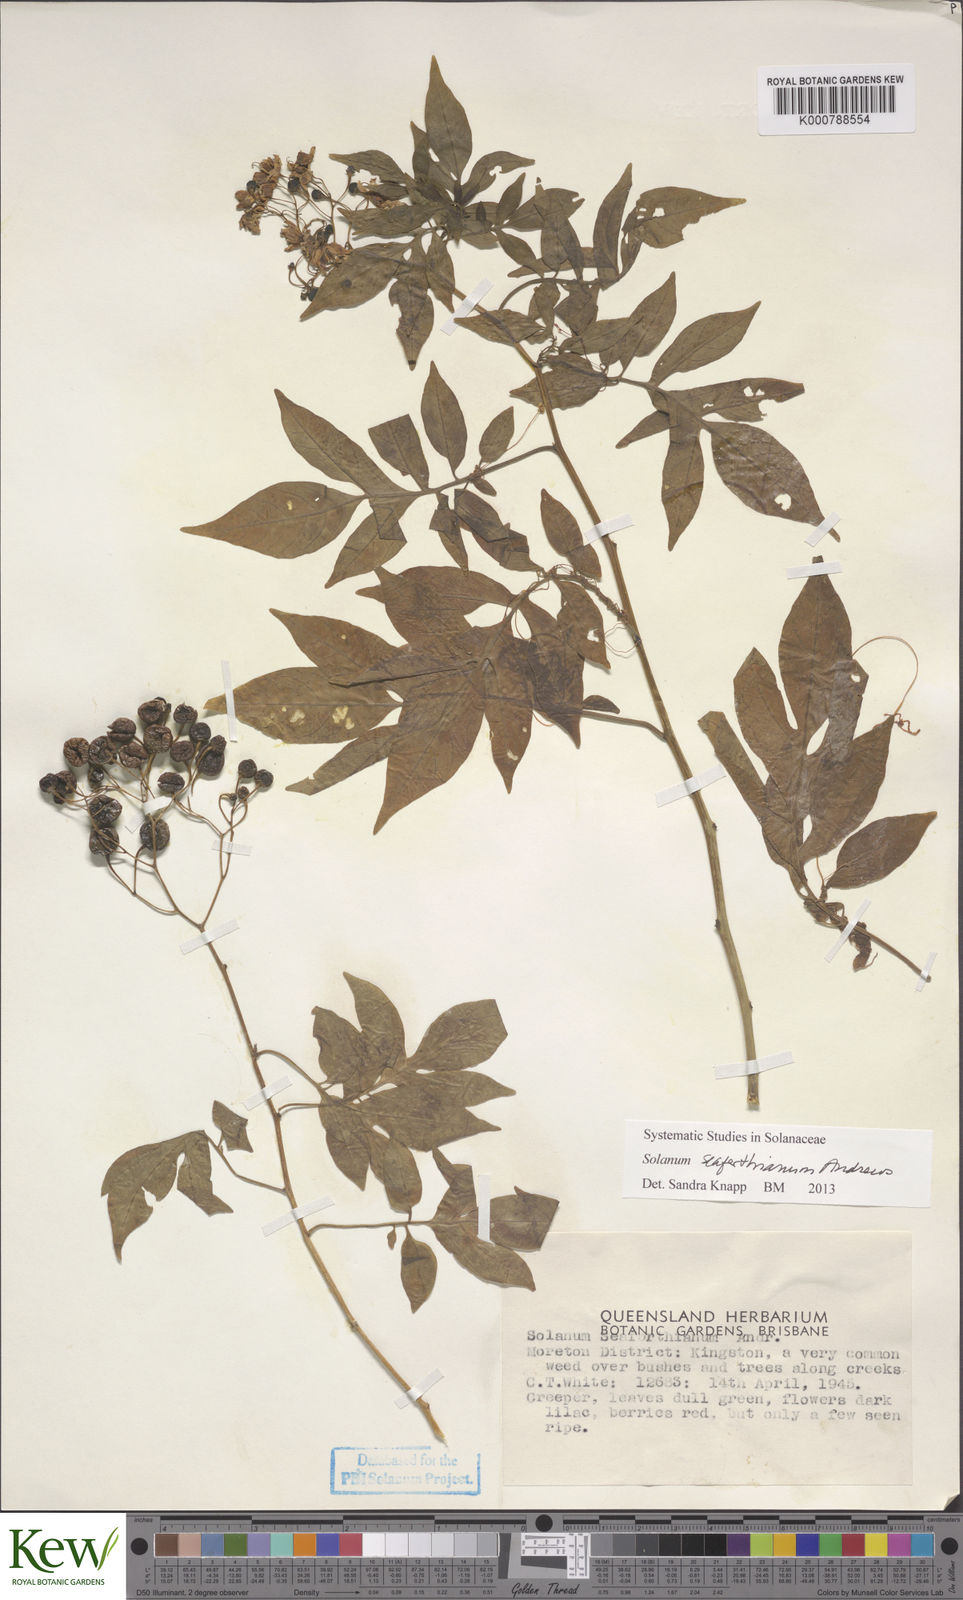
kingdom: Plantae
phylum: Tracheophyta
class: Magnoliopsida
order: Solanales
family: Solanaceae
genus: Solanum
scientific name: Solanum seaforthianum
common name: Brazilian nightshade
